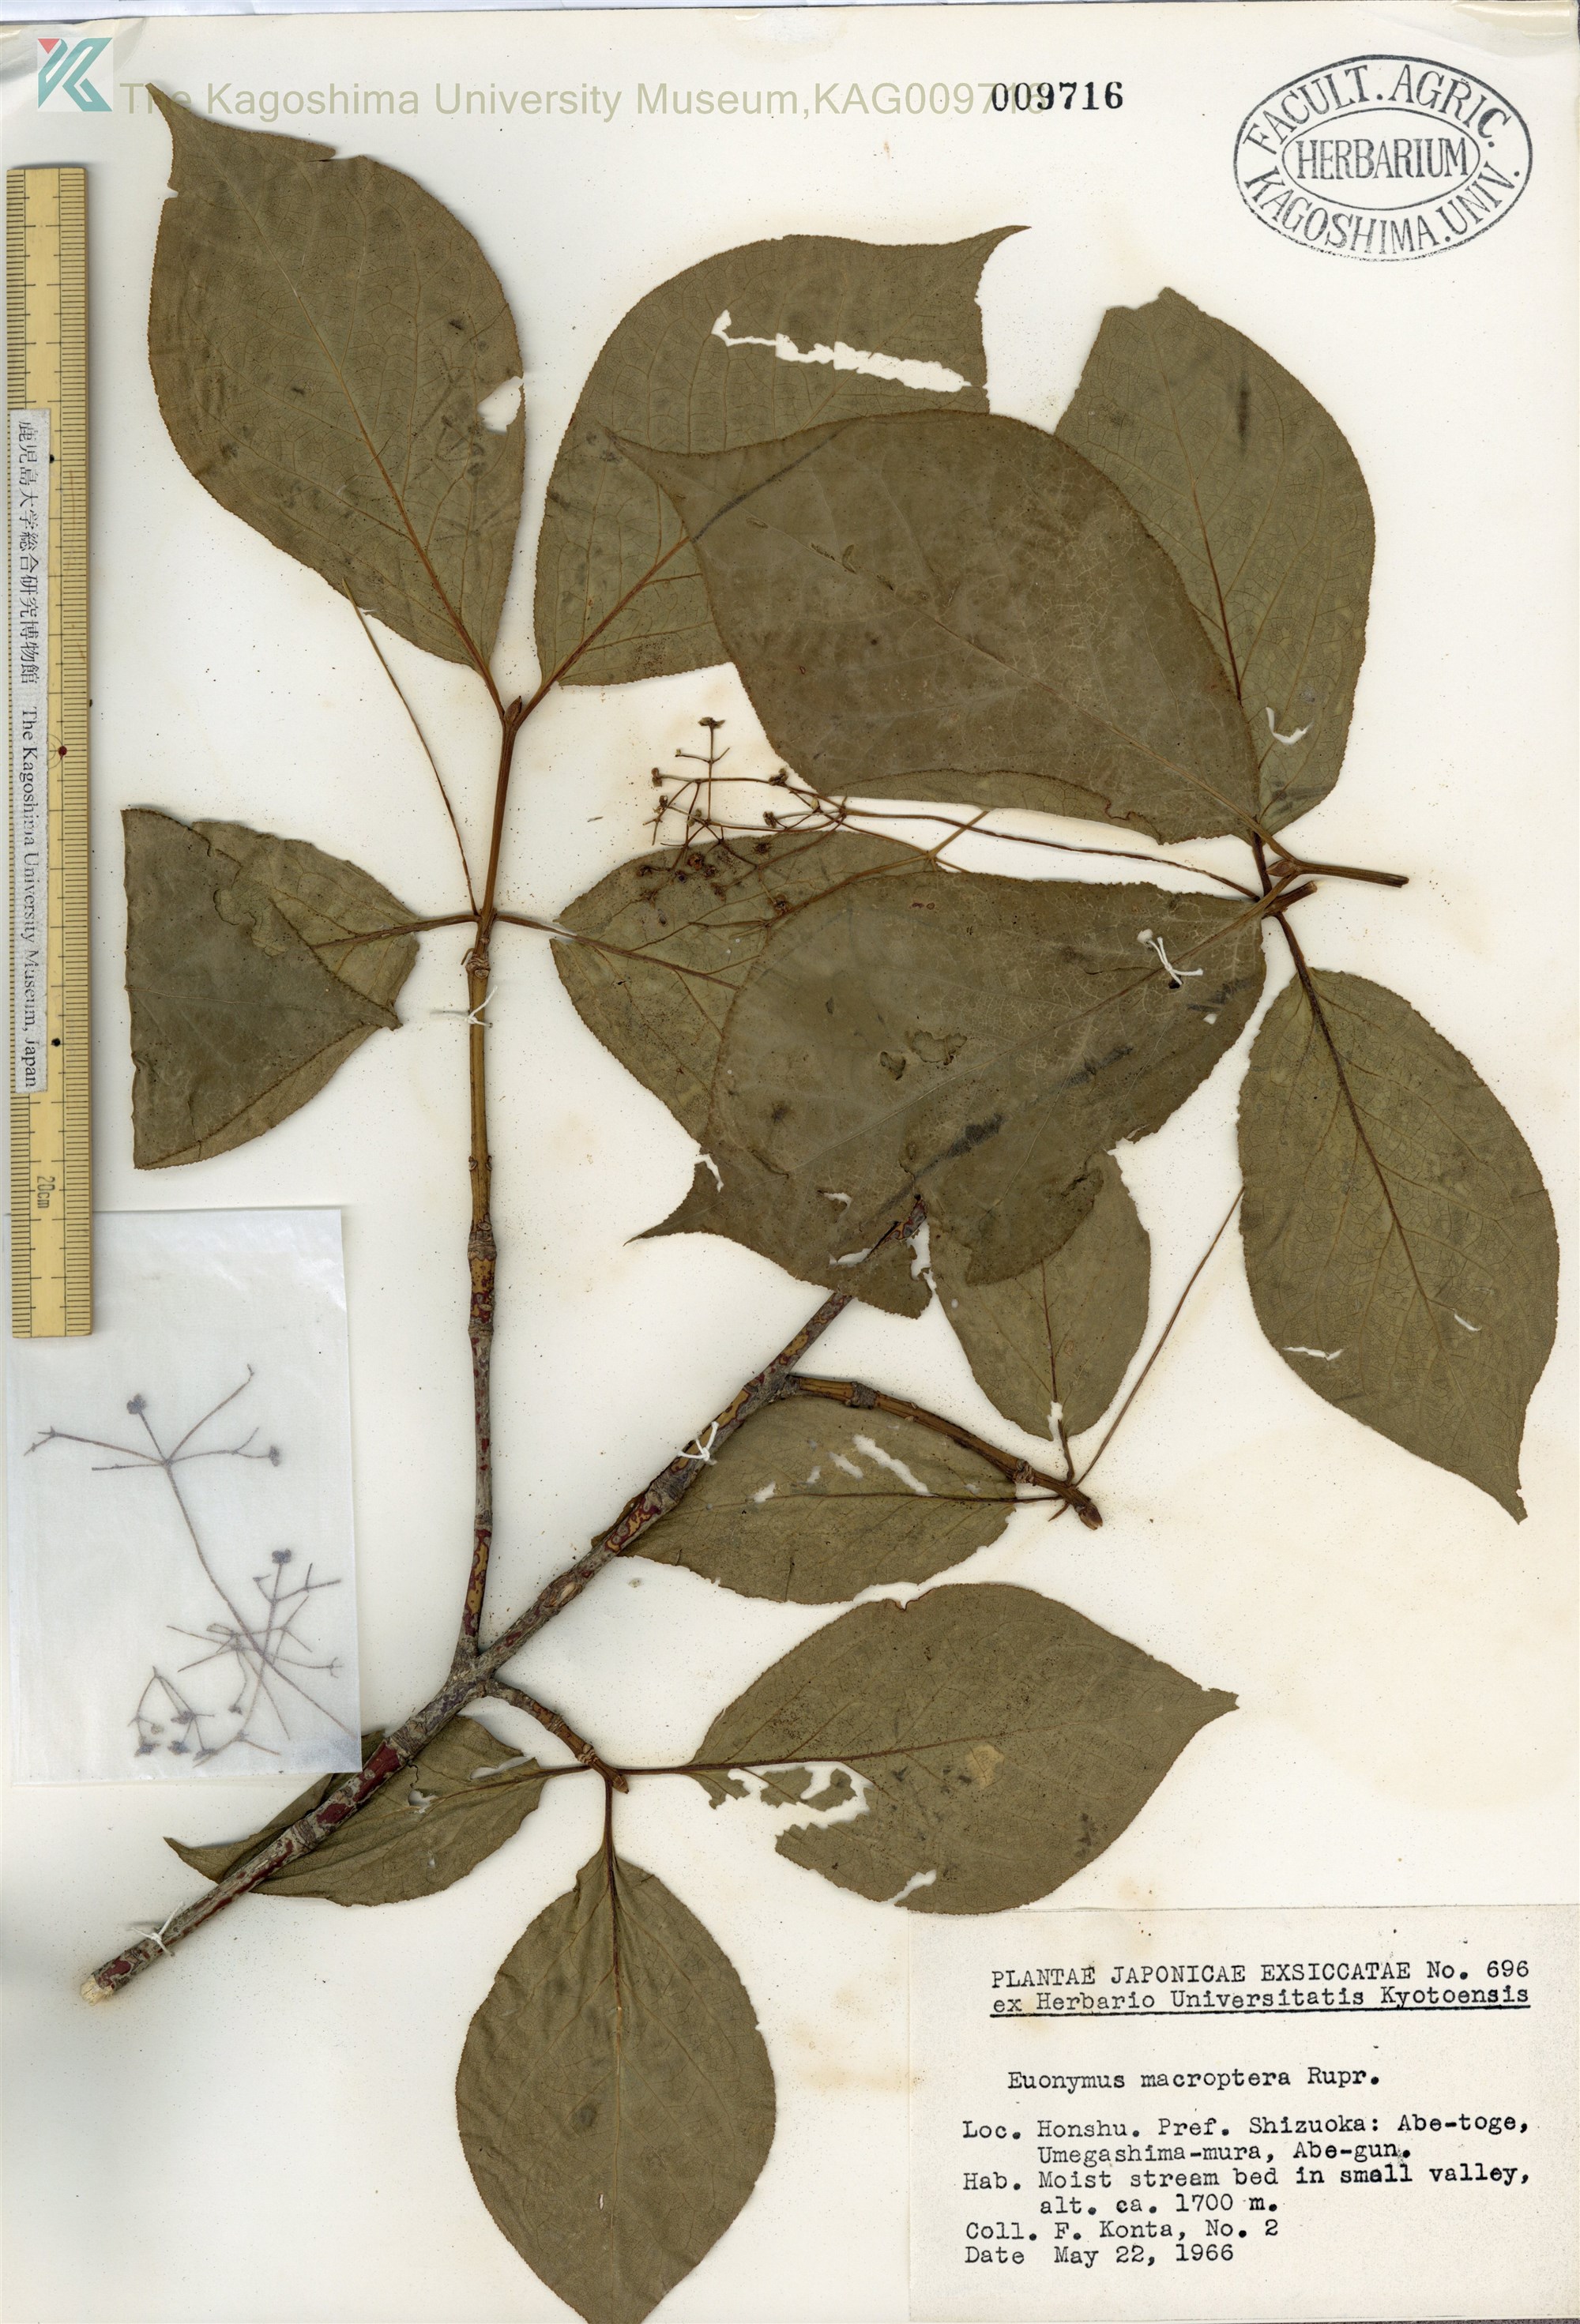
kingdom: Plantae
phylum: Tracheophyta
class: Magnoliopsida
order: Celastrales
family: Celastraceae
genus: Euonymus
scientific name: Euonymus macropterus
